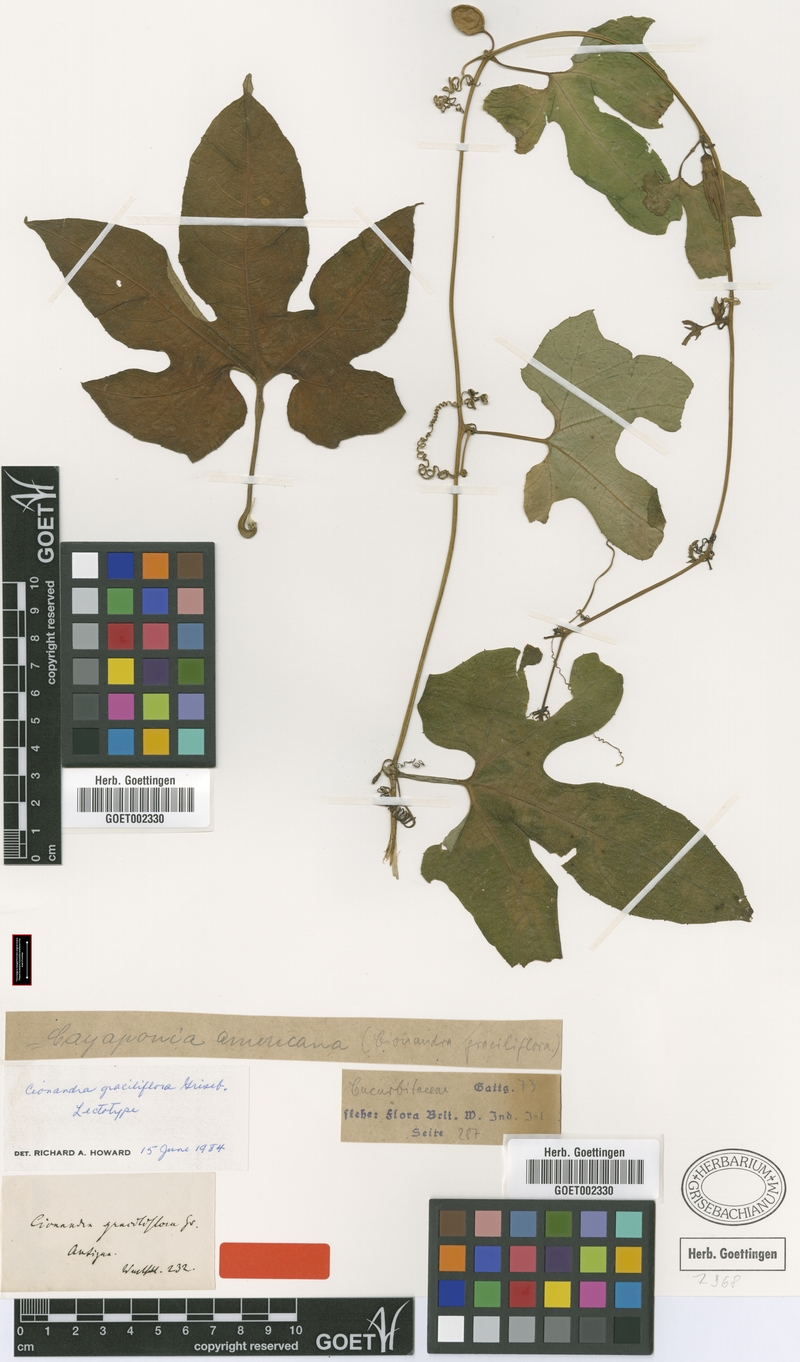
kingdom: Plantae
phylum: Tracheophyta
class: Magnoliopsida
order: Cucurbitales
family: Cucurbitaceae
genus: Cayaponia
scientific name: Cayaponia americana
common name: American melonleaf
